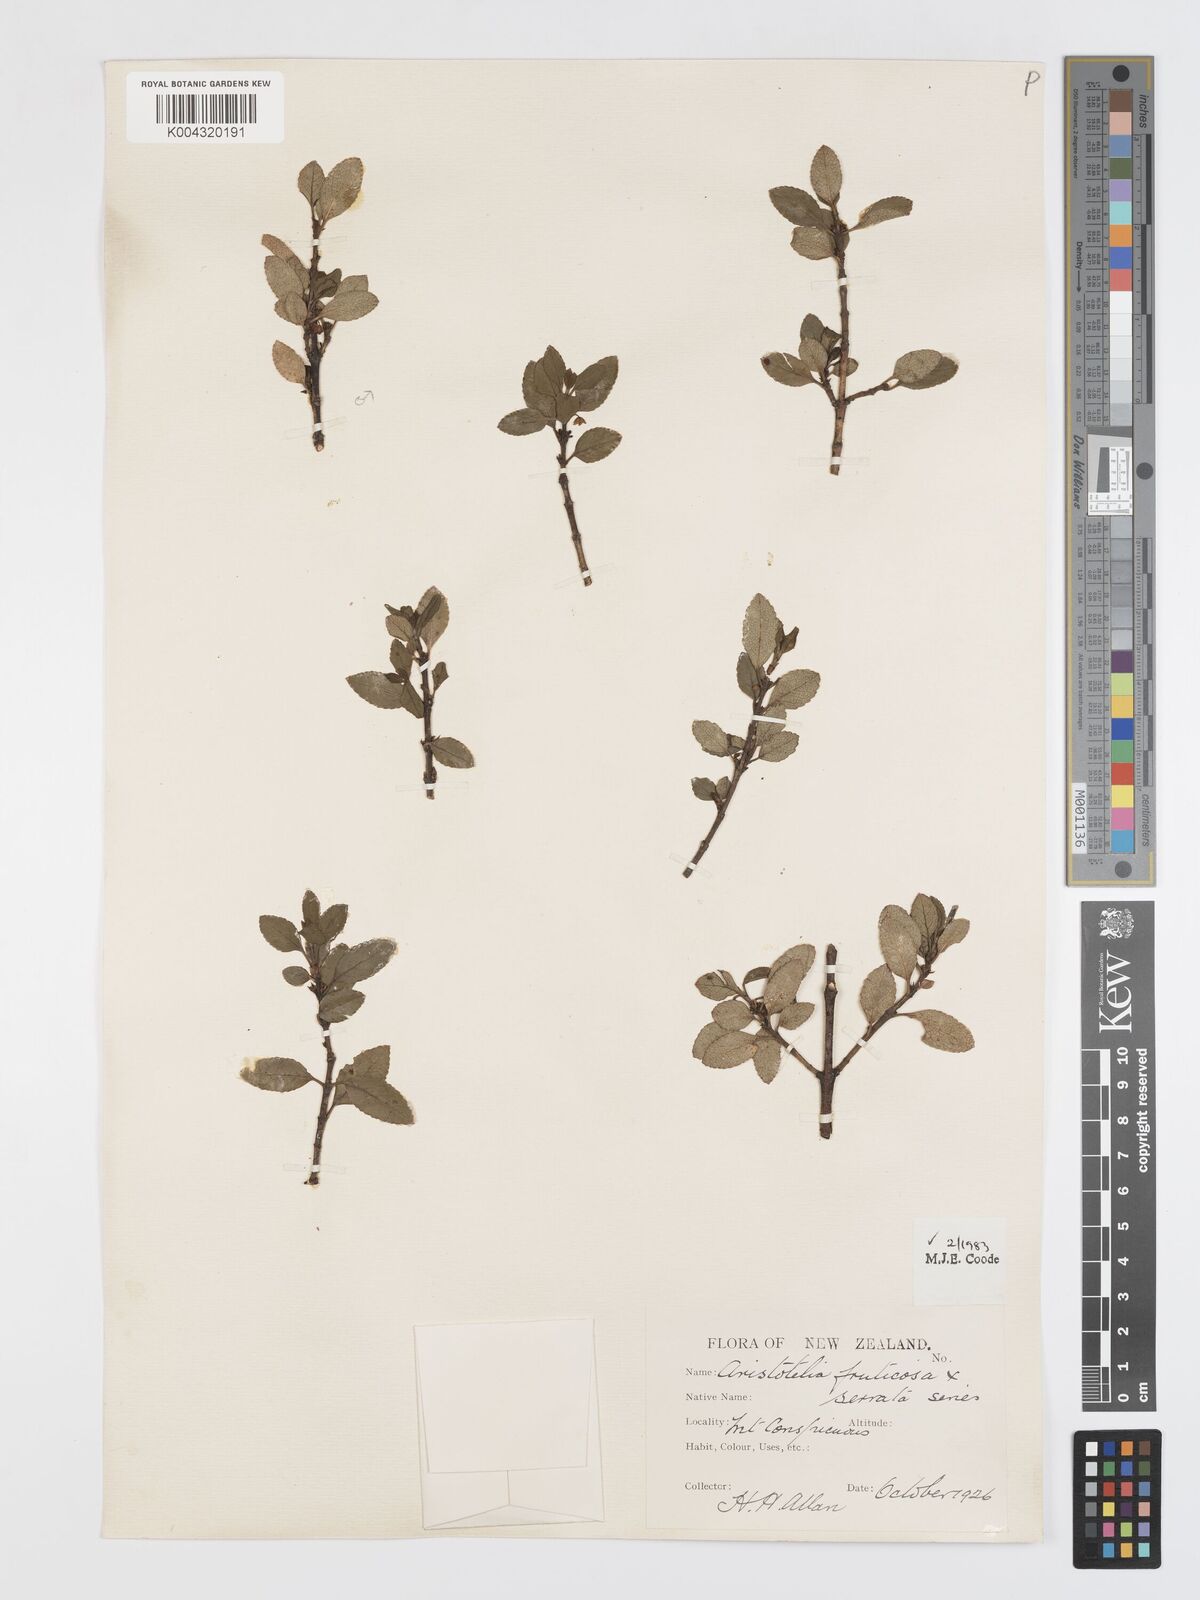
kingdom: Plantae
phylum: Tracheophyta
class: Magnoliopsida
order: Oxalidales
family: Elaeocarpaceae
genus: Aristotelia
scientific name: Aristotelia fruticosa
